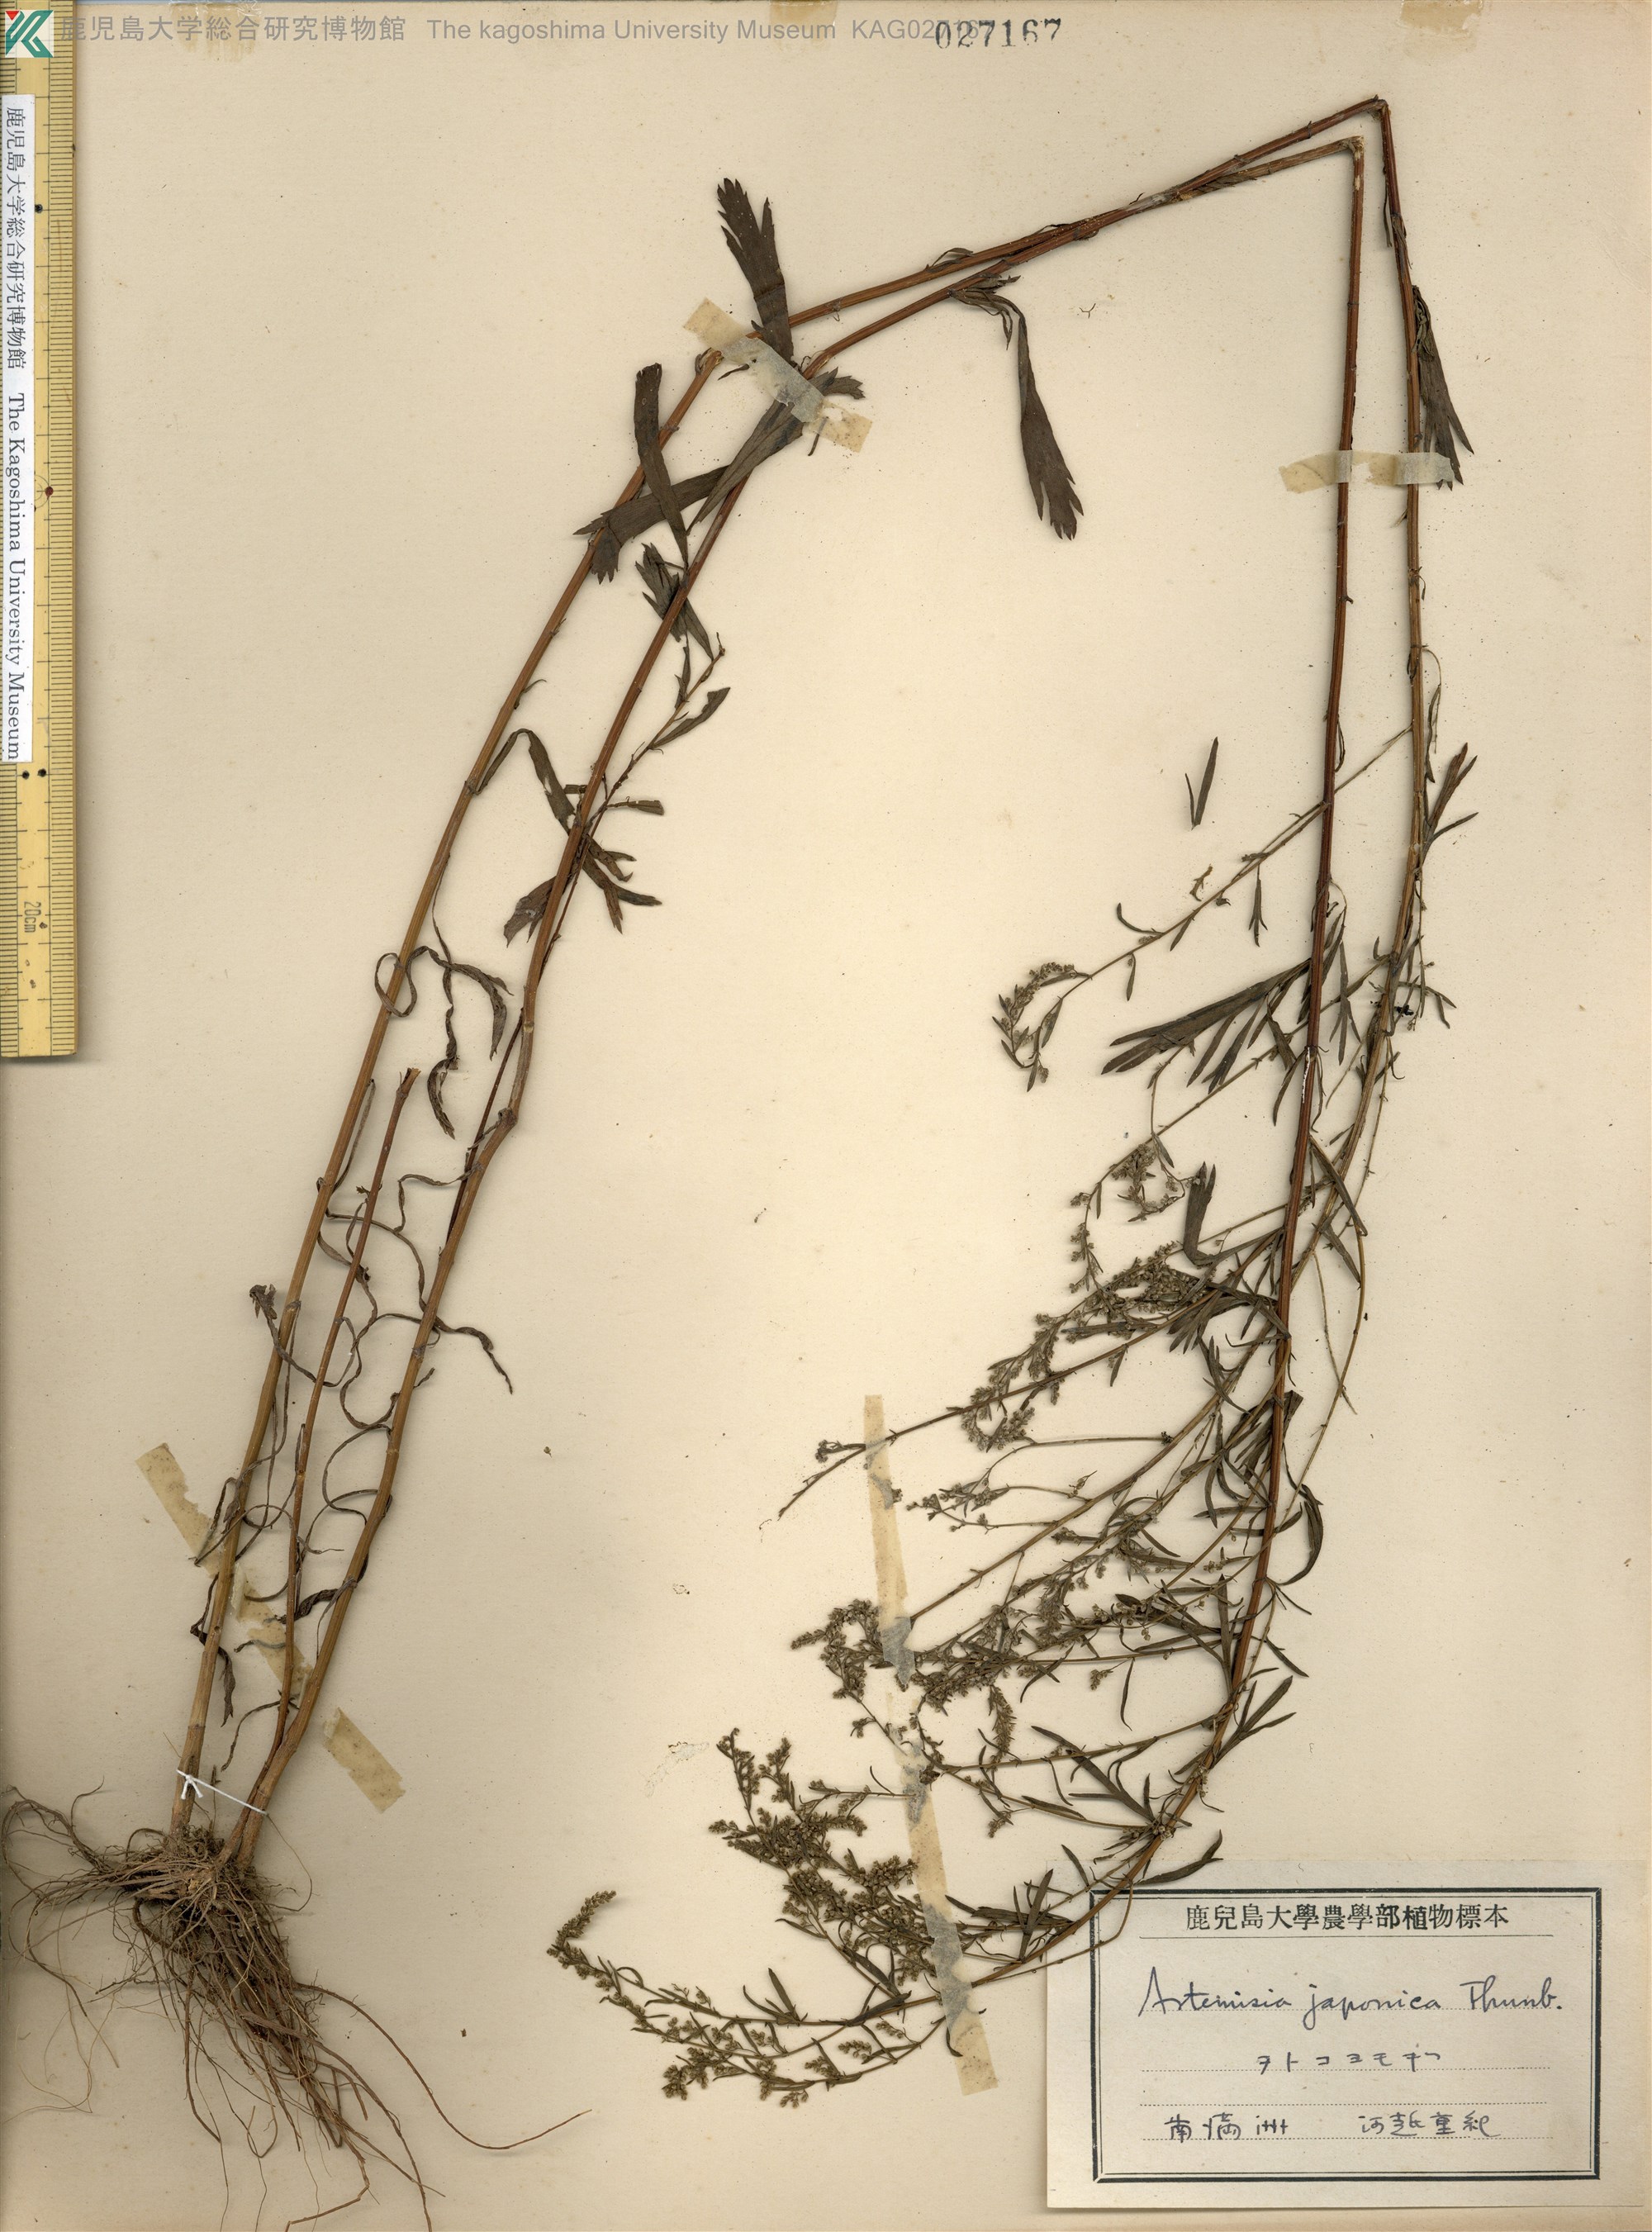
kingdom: Plantae
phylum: Tracheophyta
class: Magnoliopsida
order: Asterales
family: Asteraceae
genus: Artemisia
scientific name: Artemisia japonica
